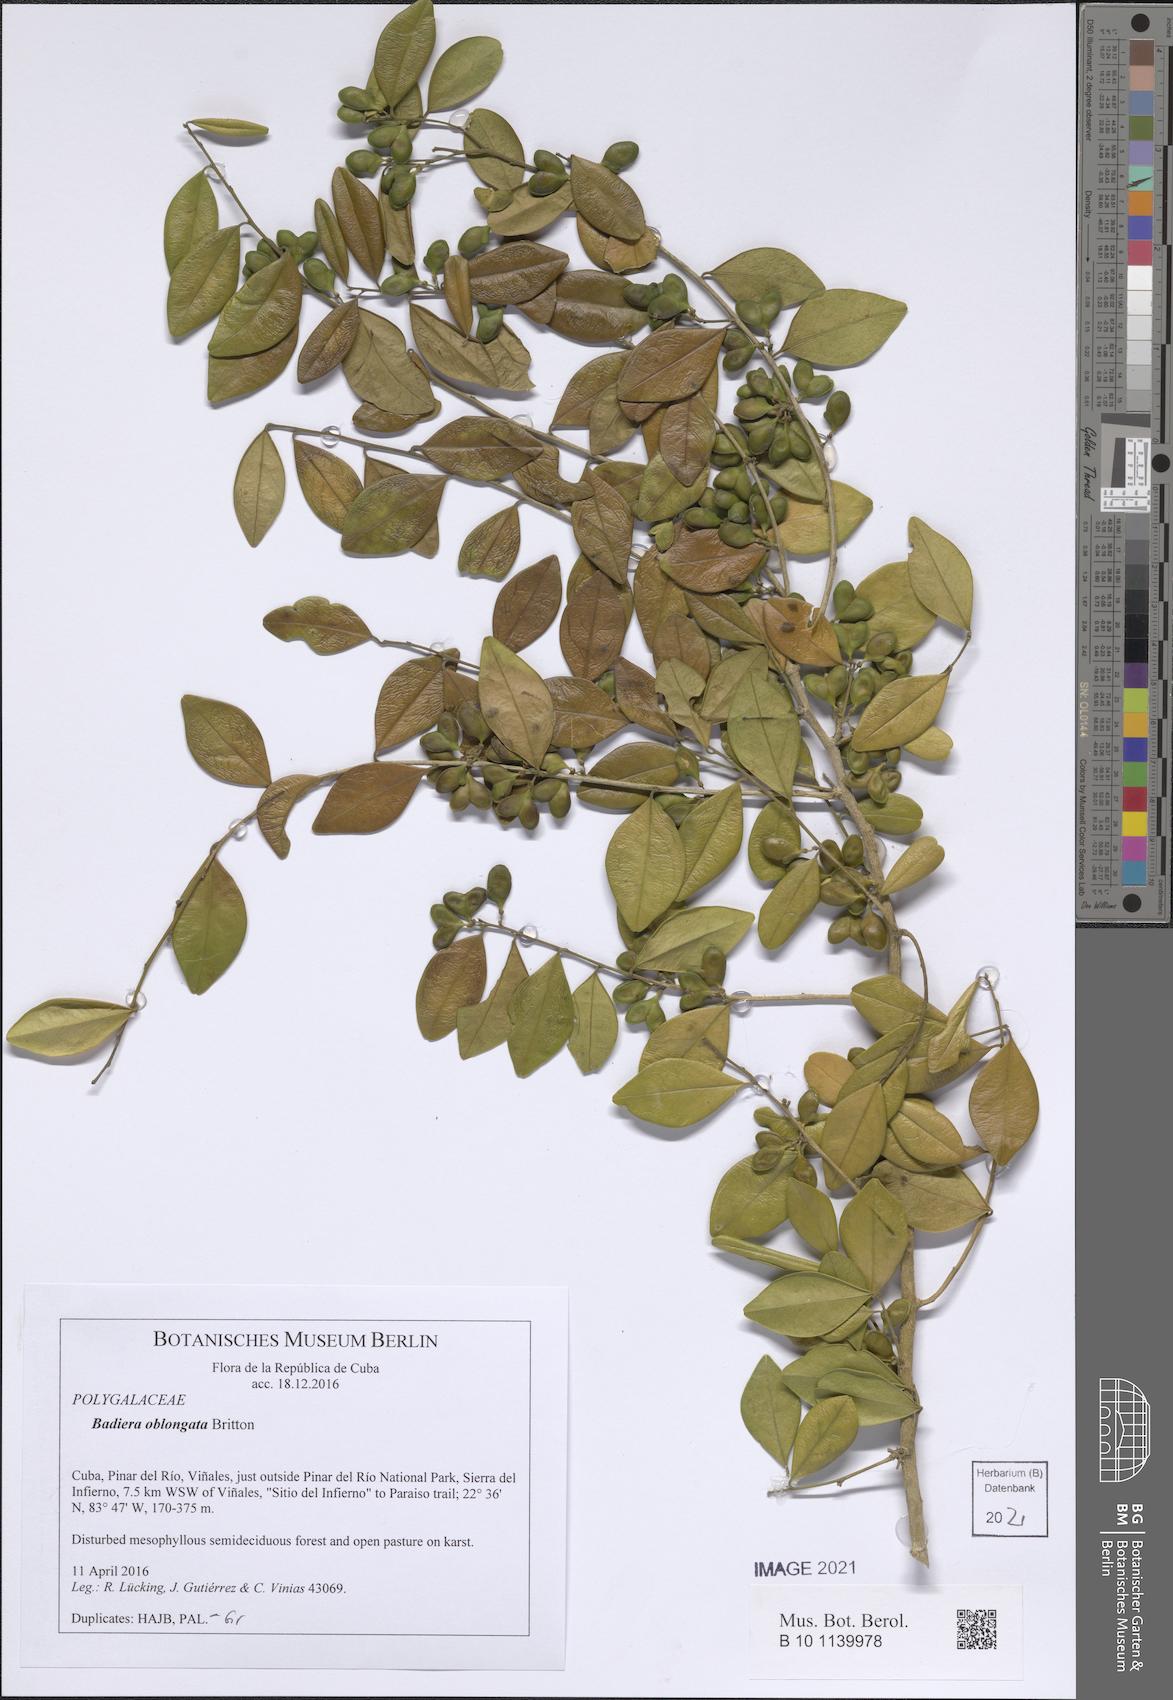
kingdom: Plantae
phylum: Tracheophyta
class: Magnoliopsida
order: Fabales
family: Polygalaceae
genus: Badiera
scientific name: Badiera propinqua
